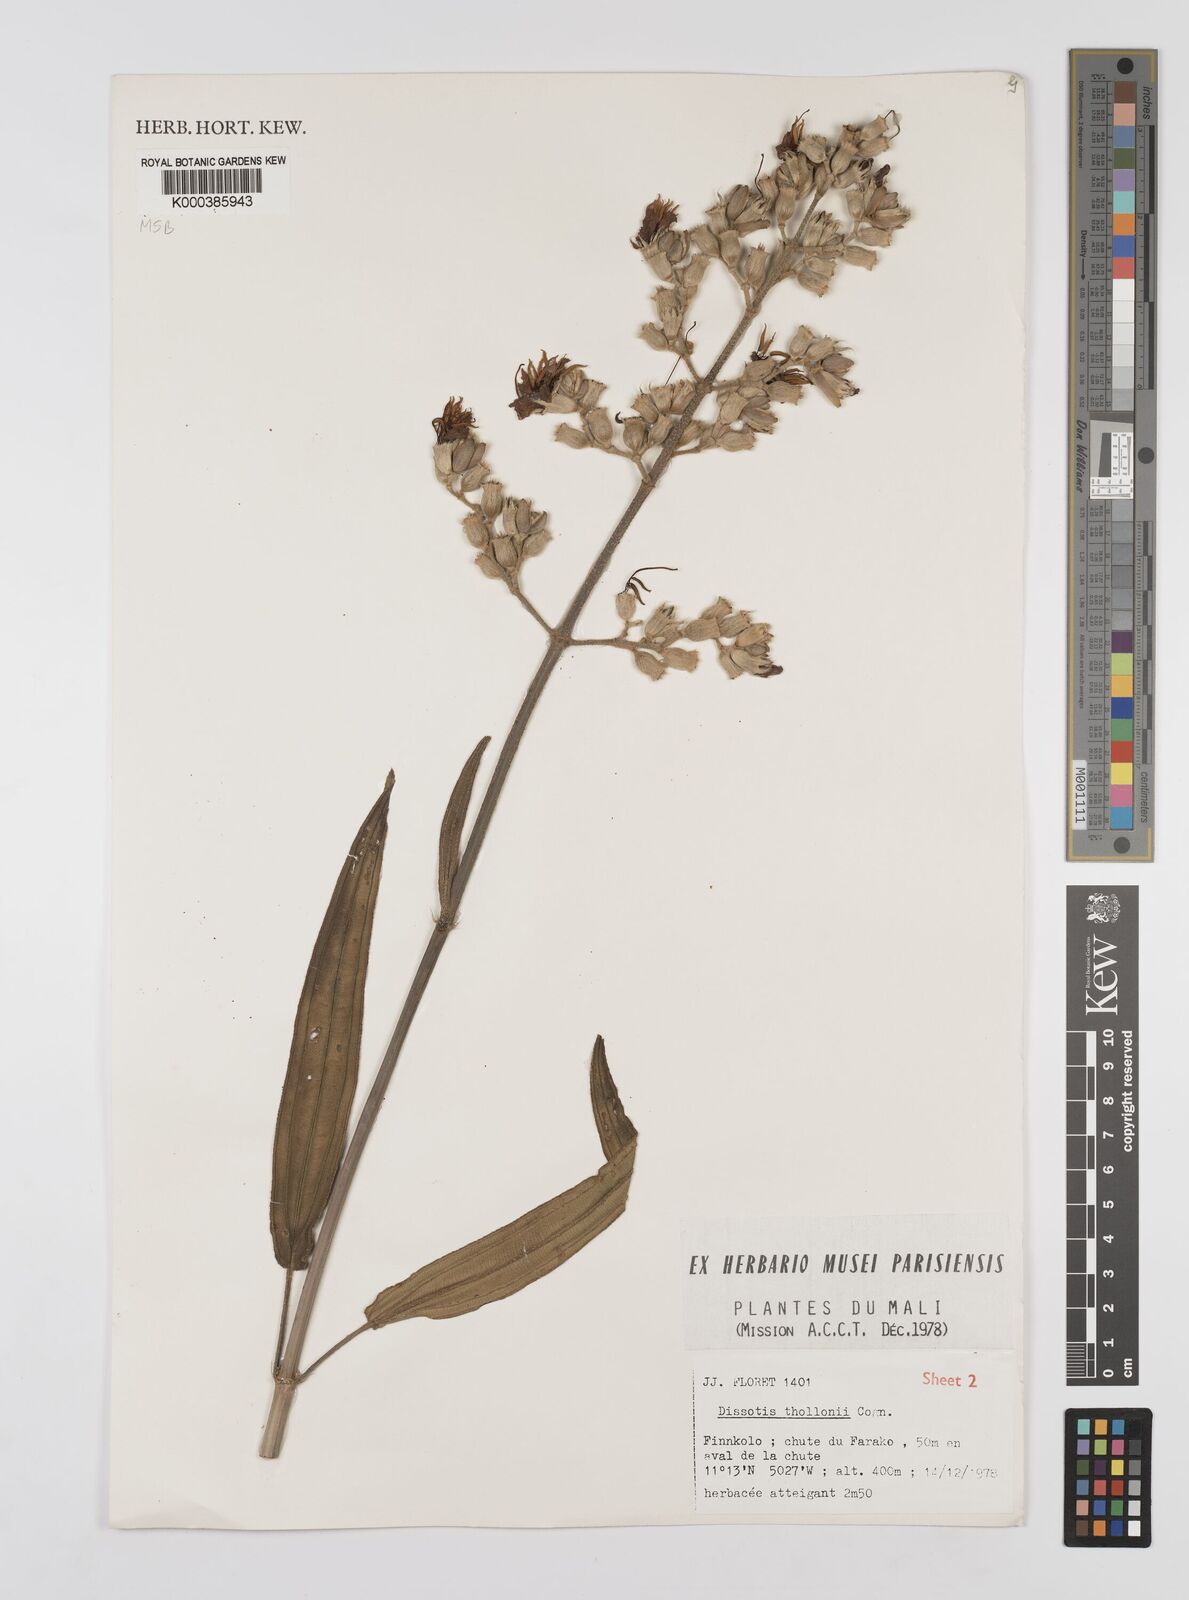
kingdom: Plantae
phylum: Tracheophyta
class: Magnoliopsida
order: Myrtales
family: Melastomataceae
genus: Dissotis
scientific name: Dissotis
